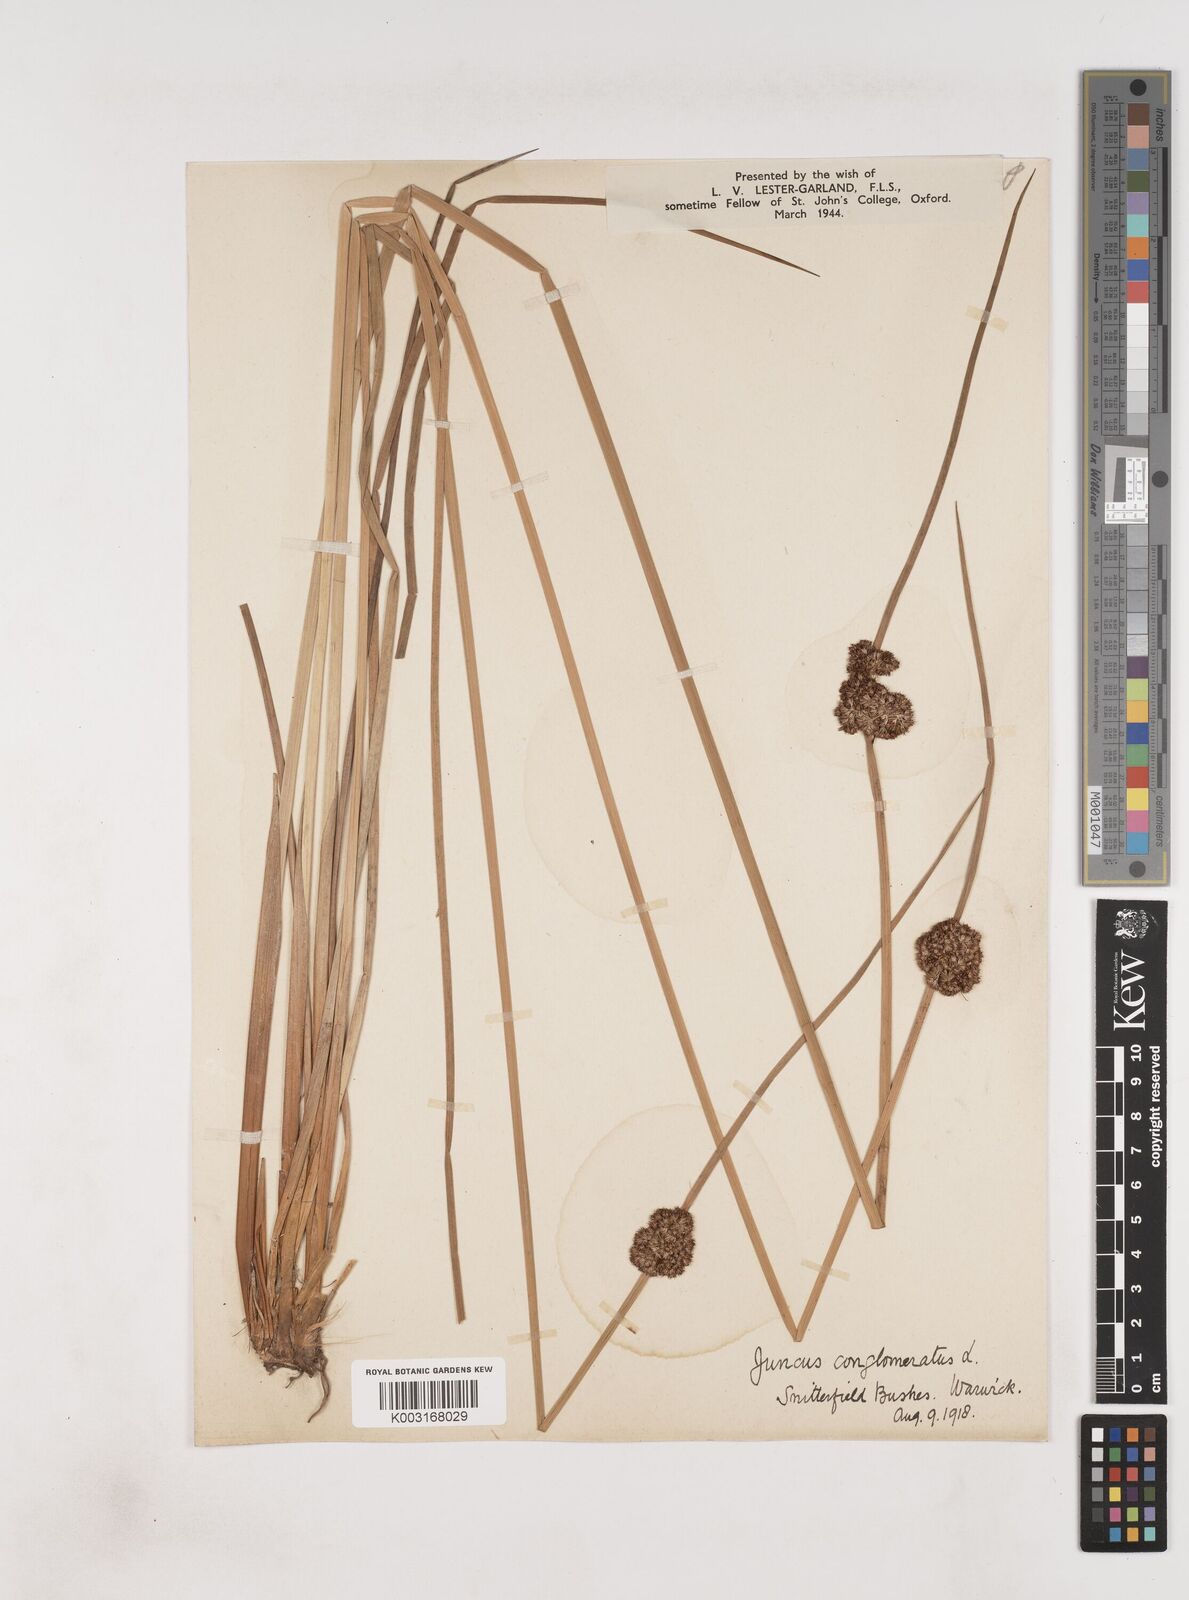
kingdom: Plantae
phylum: Tracheophyta
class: Liliopsida
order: Poales
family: Juncaceae
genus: Juncus
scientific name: Juncus conglomeratus
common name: Compact rush
